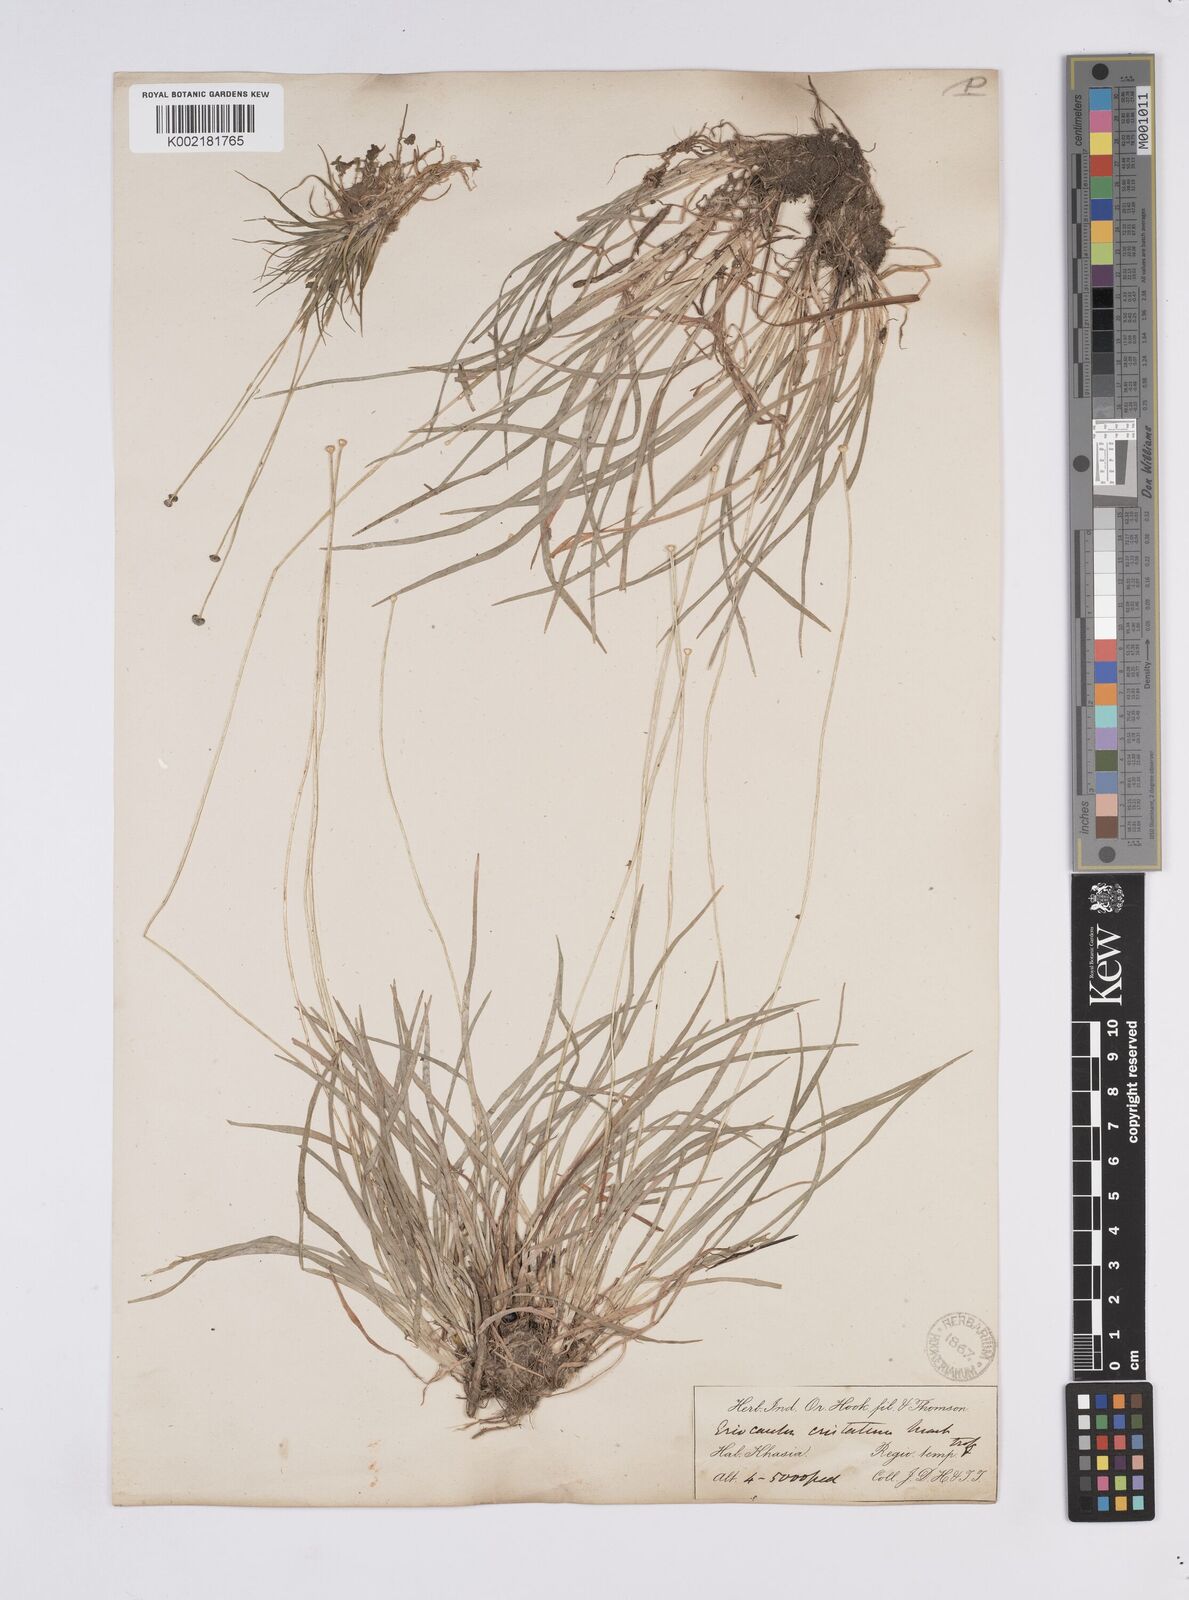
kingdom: Plantae
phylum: Tracheophyta
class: Liliopsida
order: Poales
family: Eriocaulaceae
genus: Eriocaulon
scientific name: Eriocaulon cristatum
